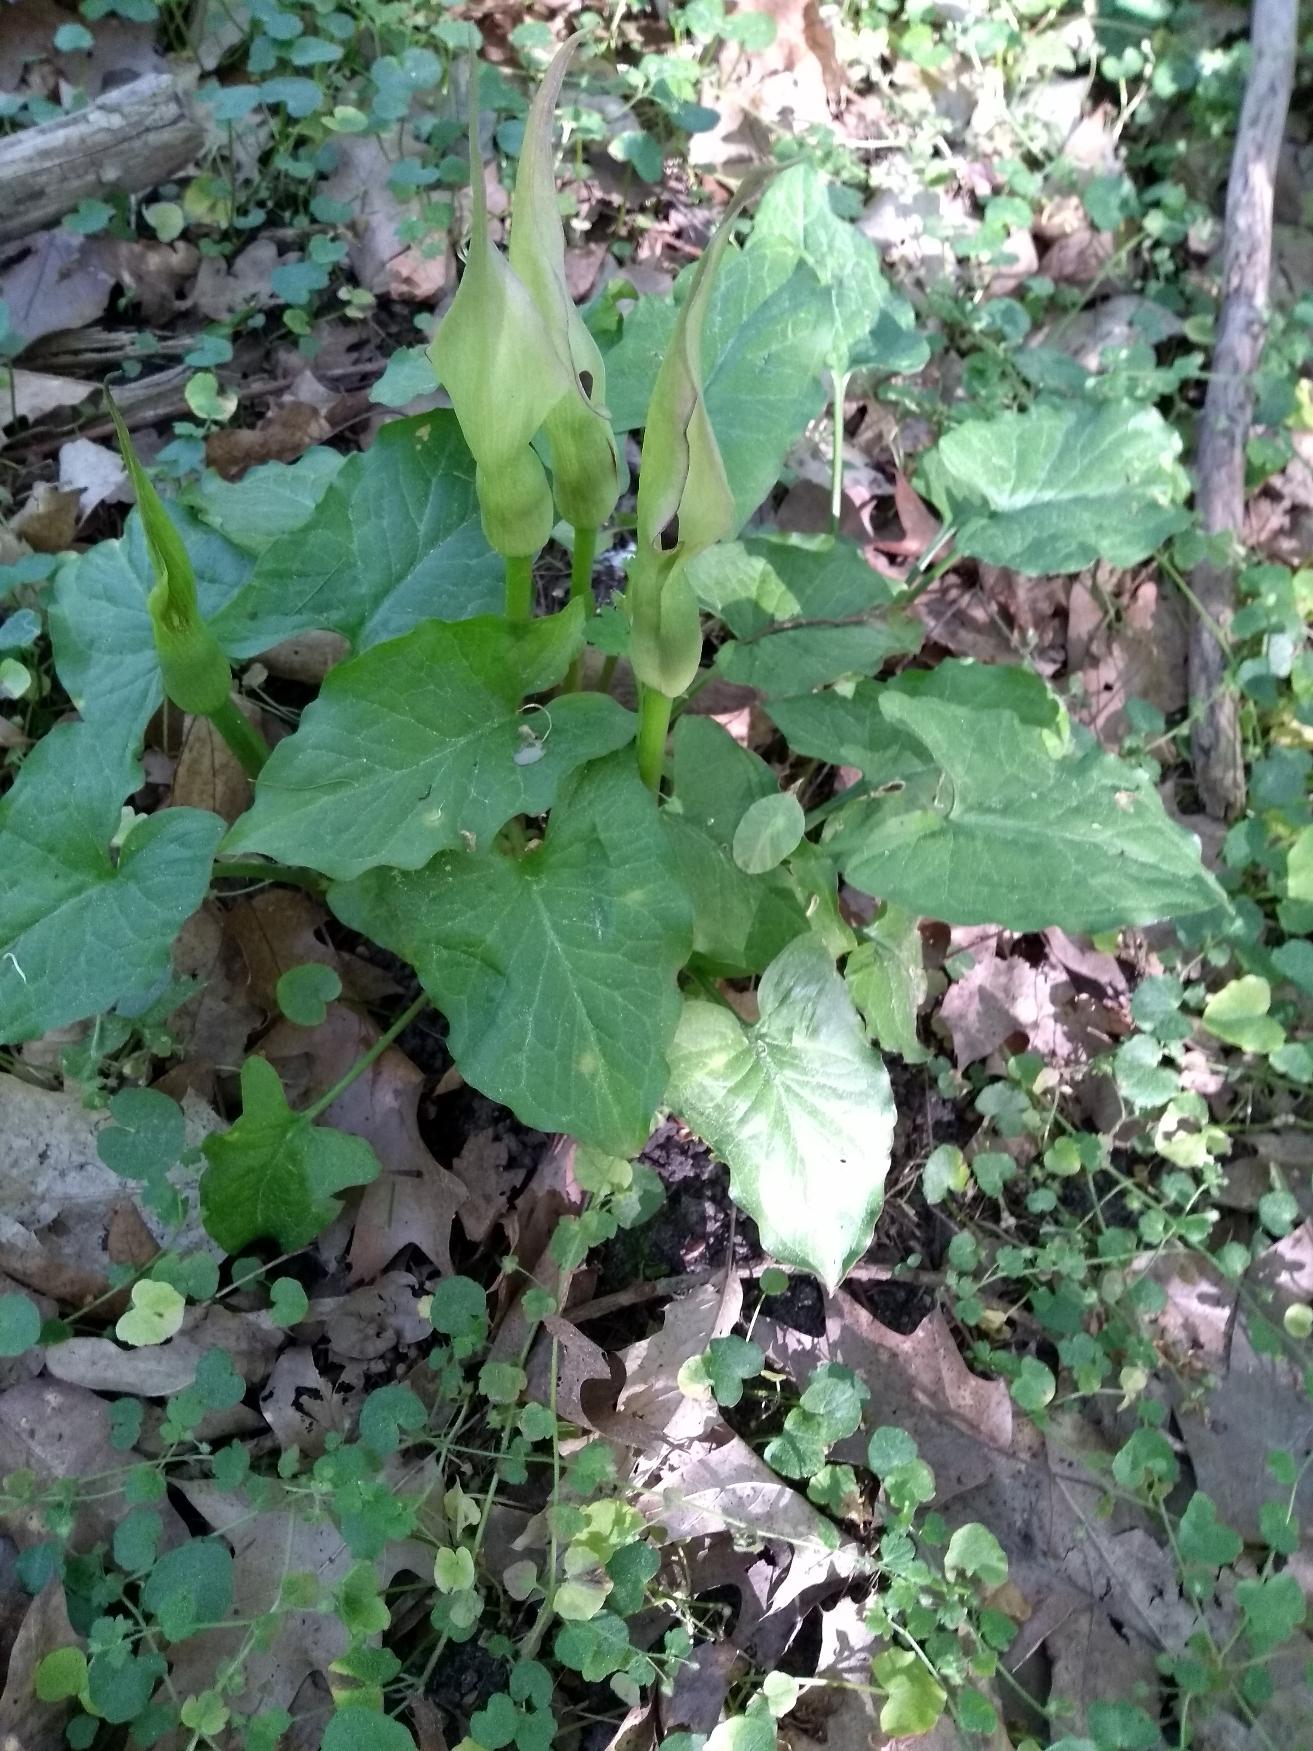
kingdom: Plantae
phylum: Tracheophyta
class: Liliopsida
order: Alismatales
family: Araceae
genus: Arum
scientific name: Arum maculatum
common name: Plettet arum
